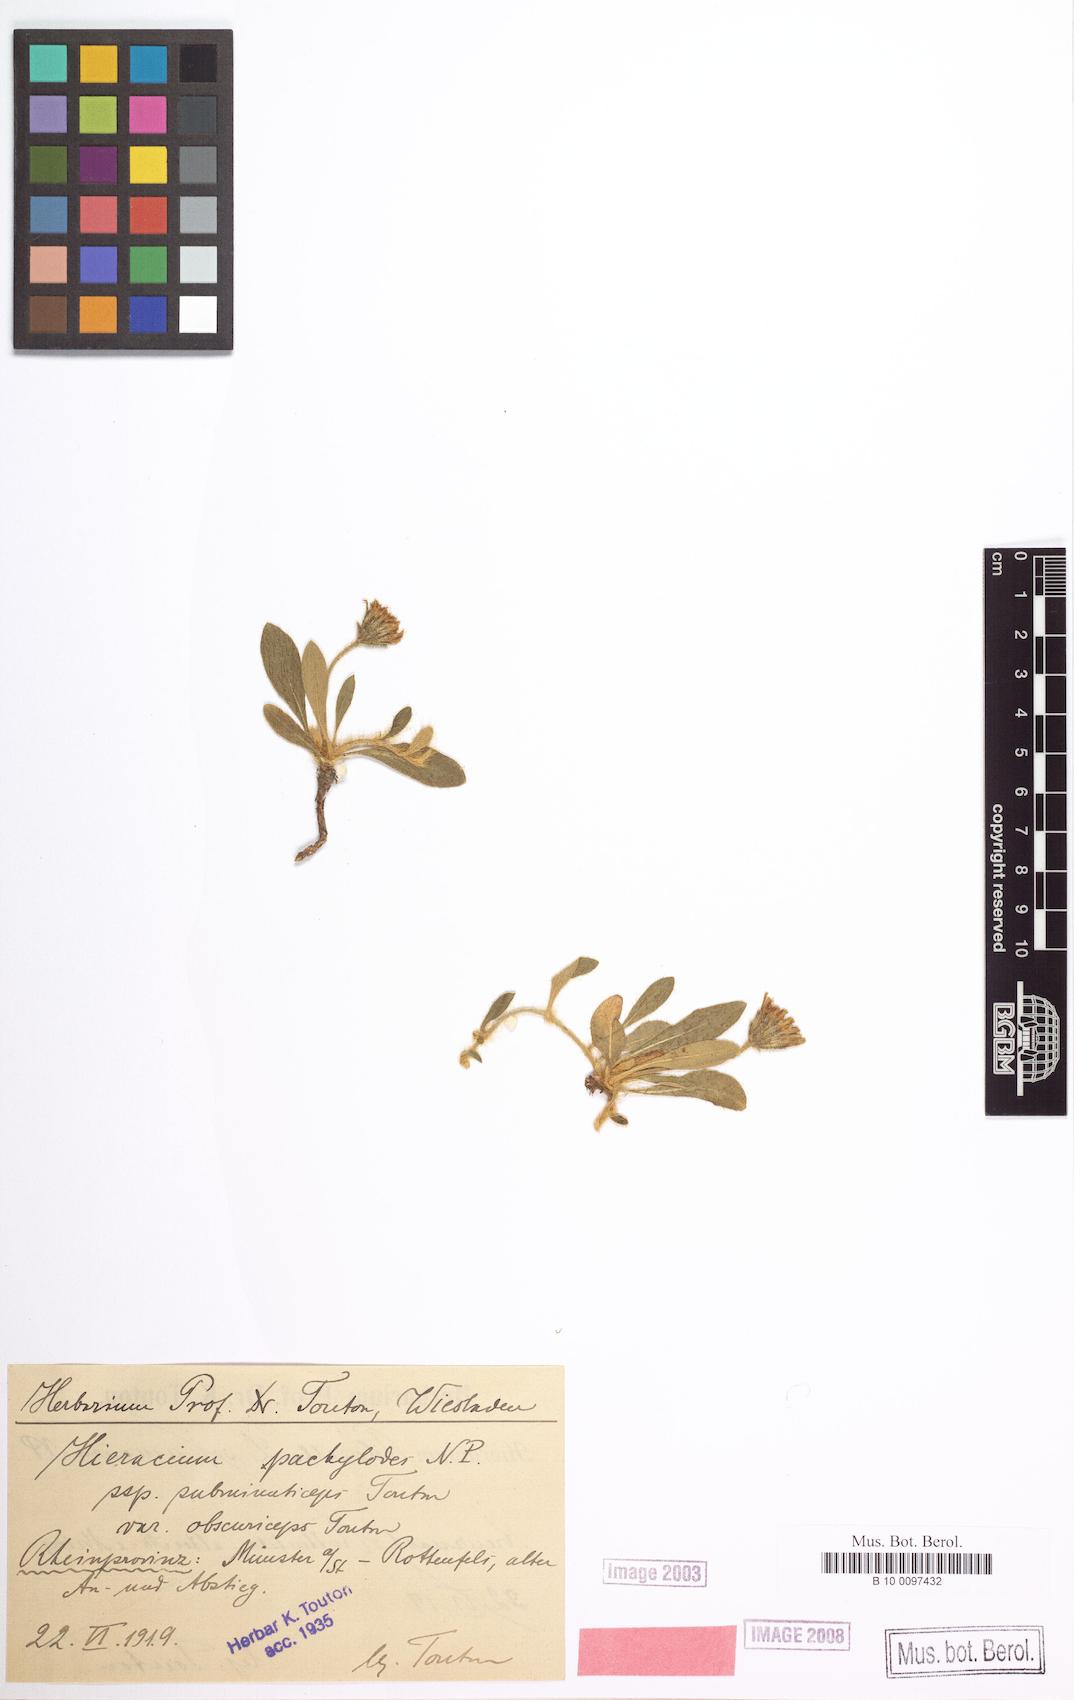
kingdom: Plantae
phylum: Tracheophyta
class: Magnoliopsida
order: Asterales
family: Asteraceae
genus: Pilosella
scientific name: Pilosella longisquama
